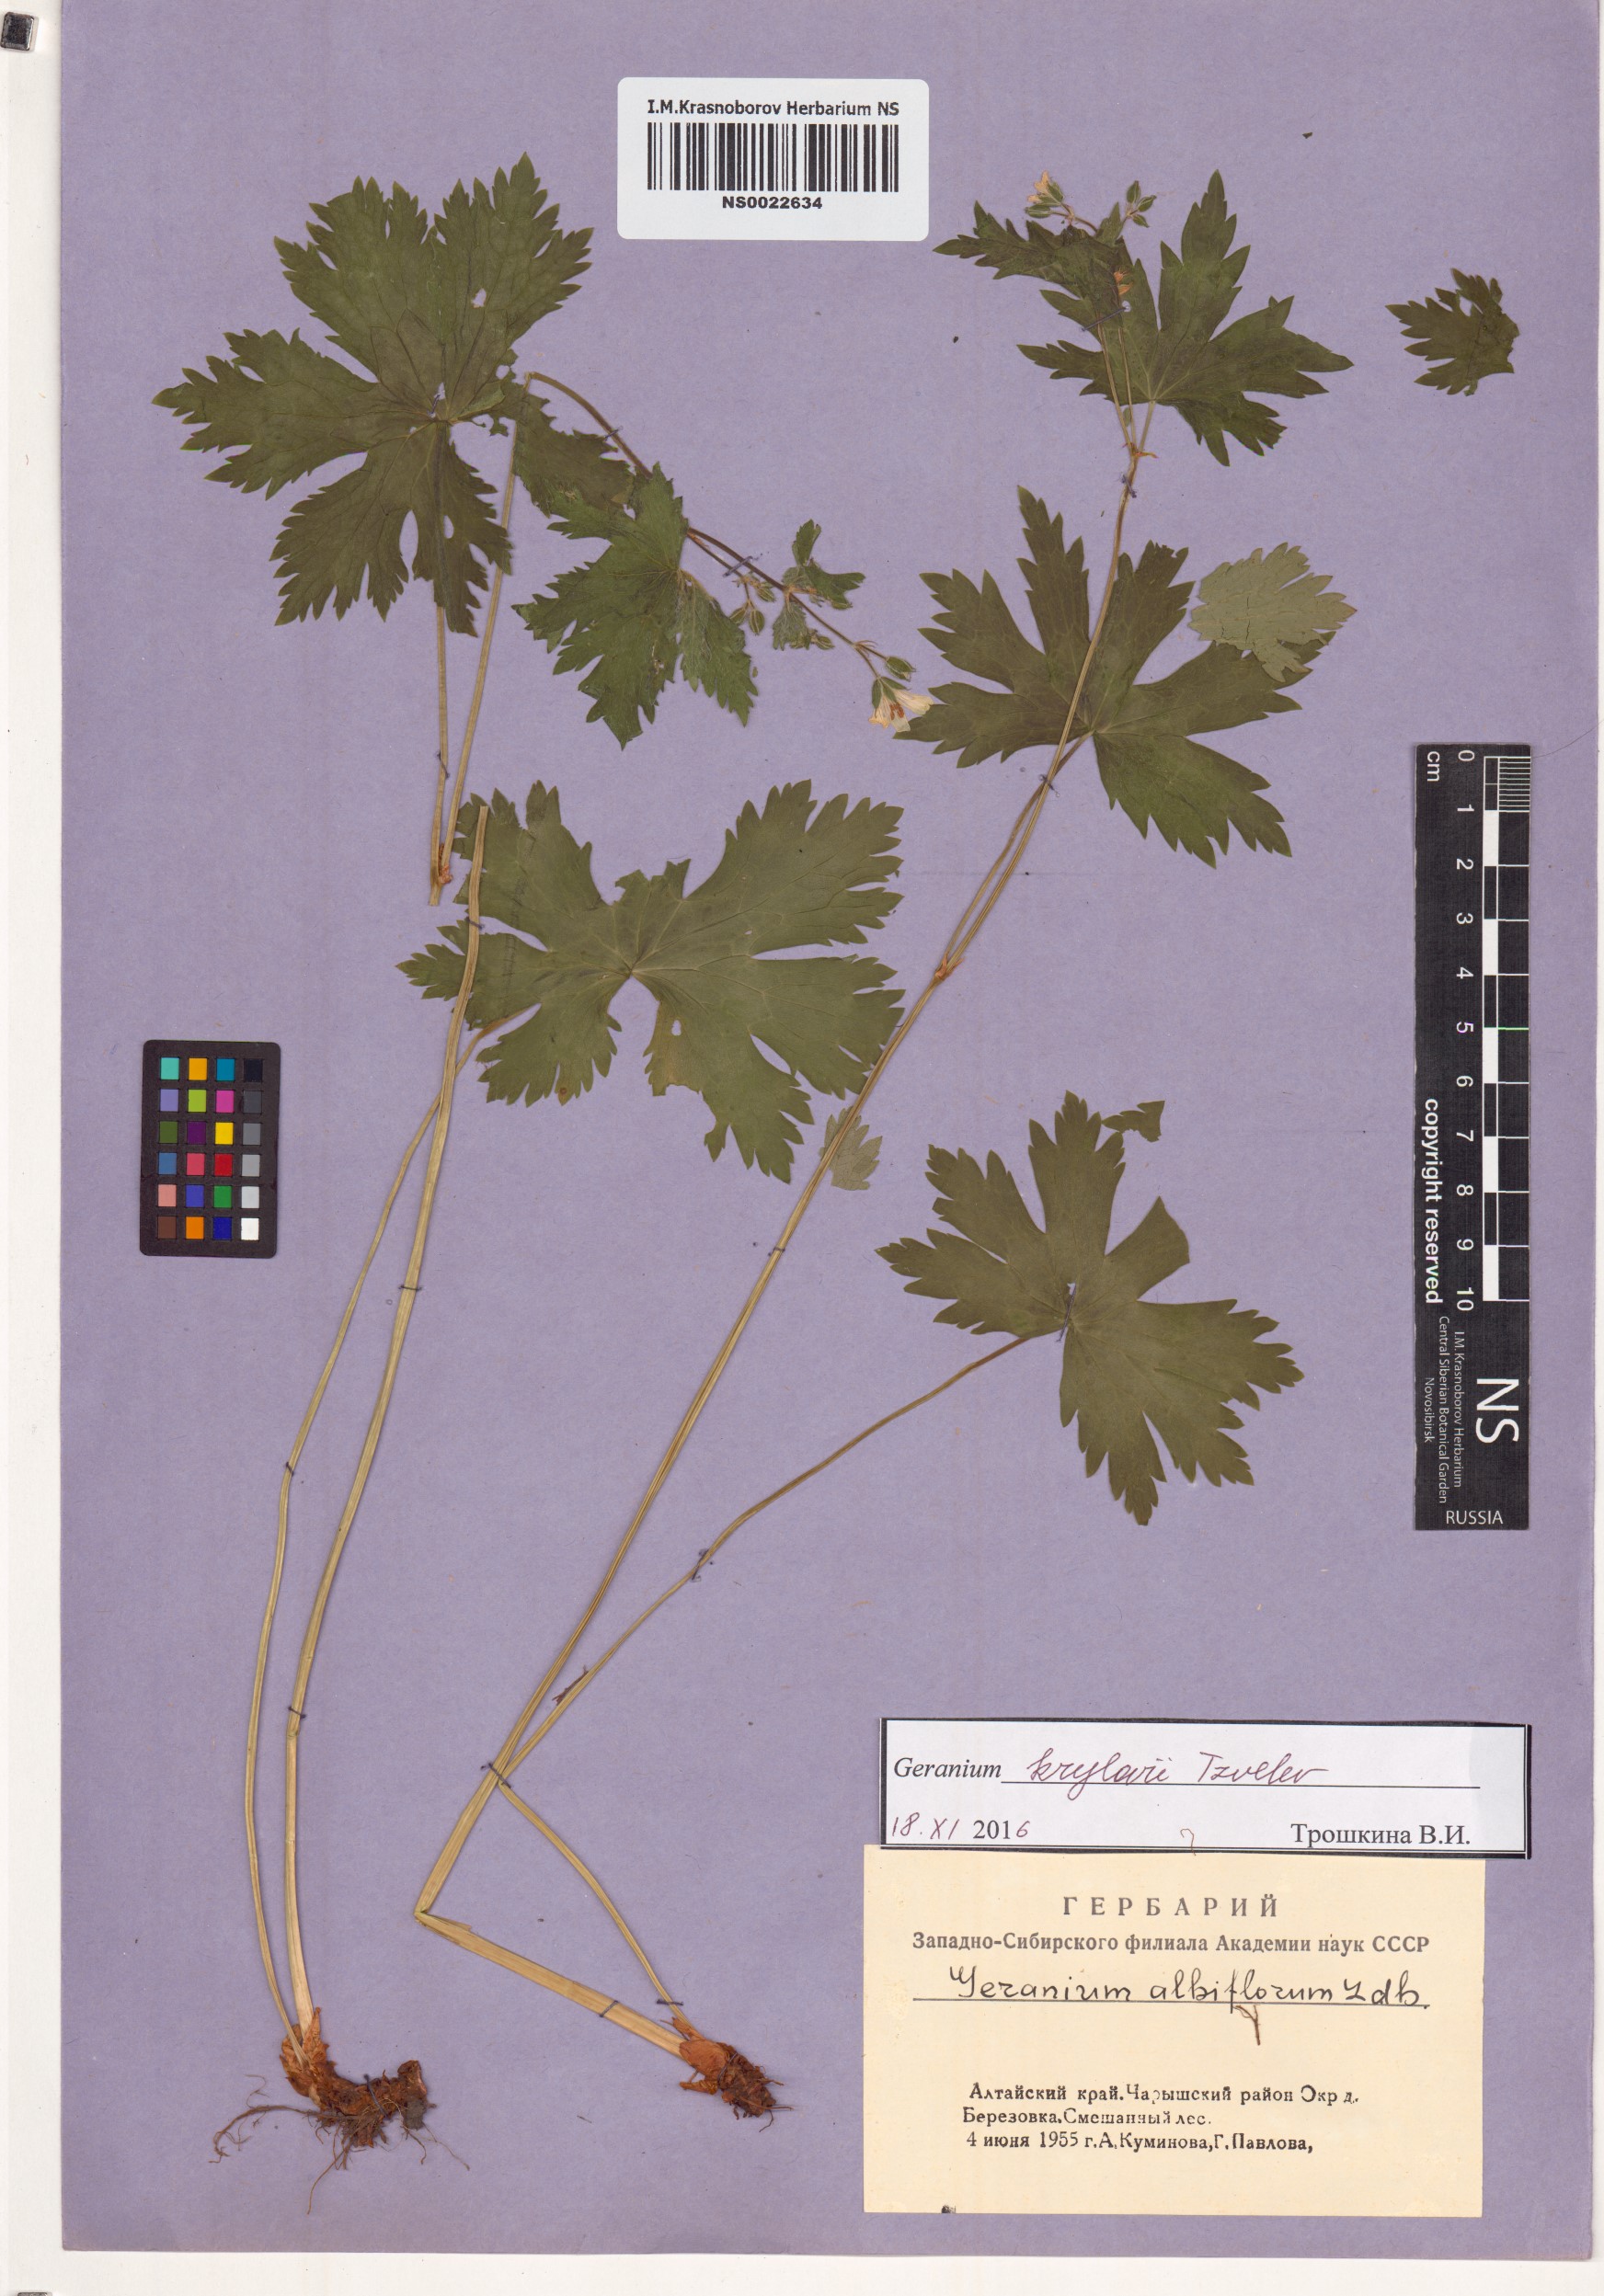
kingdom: Plantae
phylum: Tracheophyta
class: Magnoliopsida
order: Geraniales
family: Geraniaceae
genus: Geranium
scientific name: Geranium sylvaticum
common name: Wood crane's-bill
